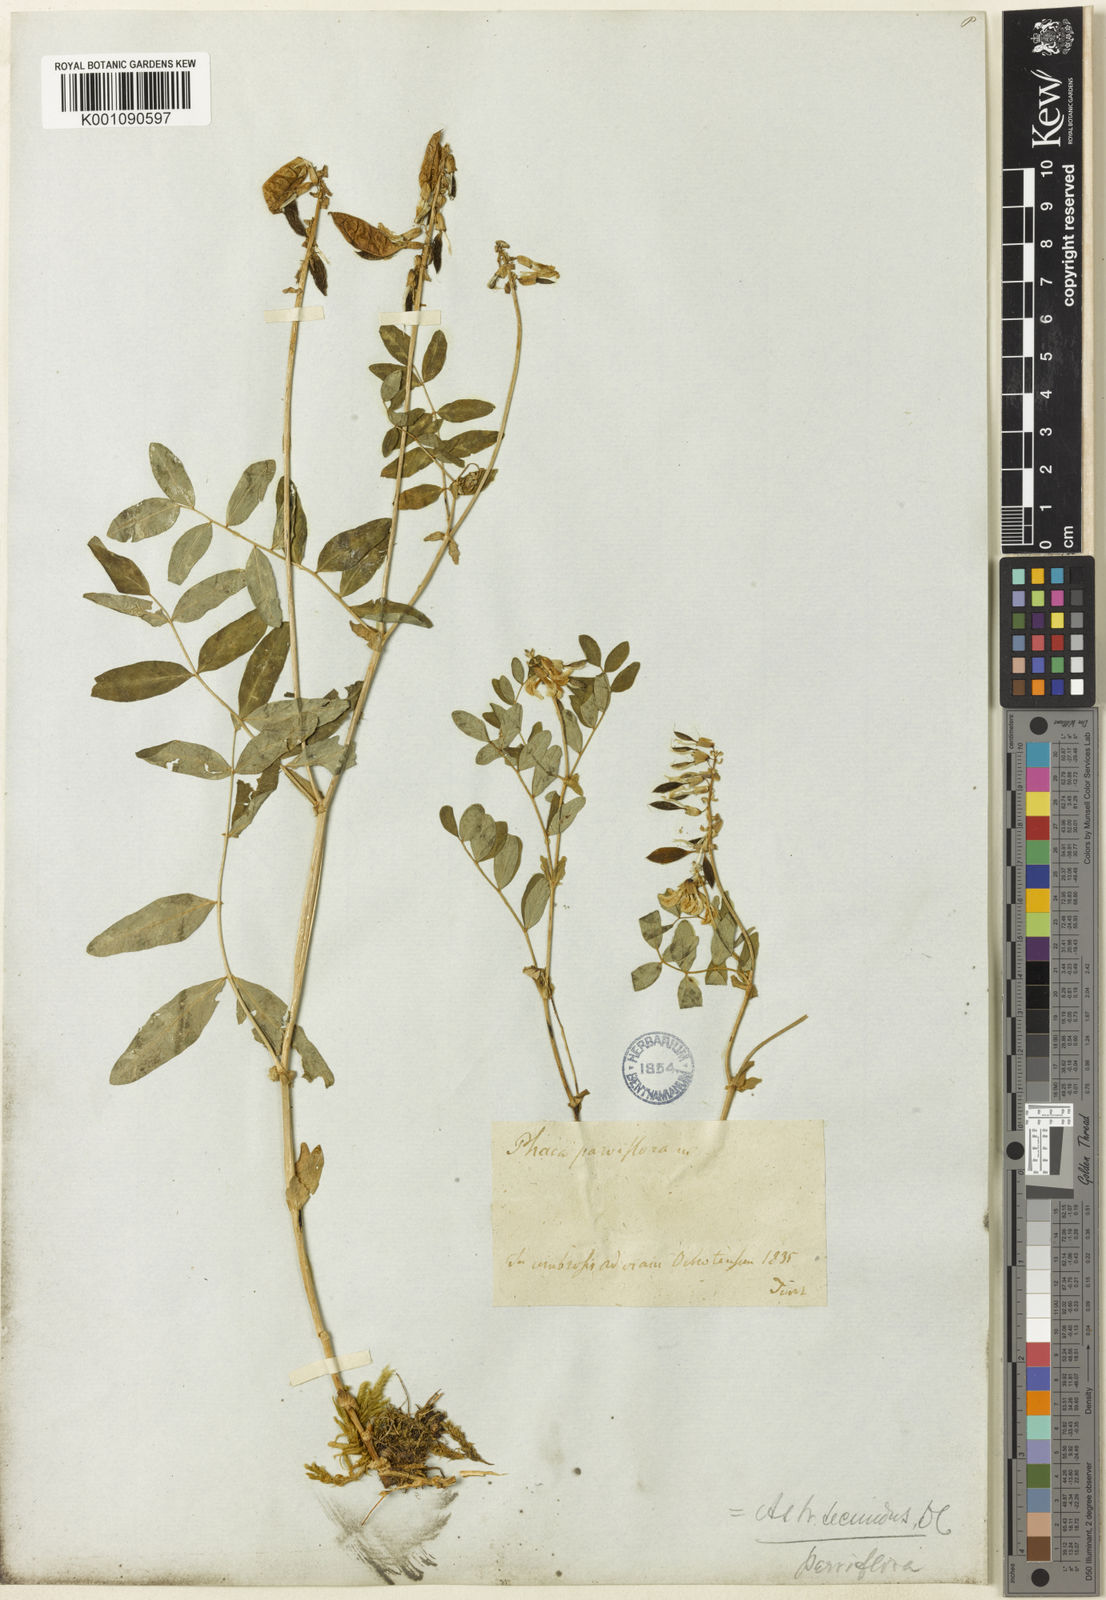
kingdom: Plantae
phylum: Tracheophyta
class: Magnoliopsida
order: Fabales
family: Fabaceae
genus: Astragalus
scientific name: Astragalus
